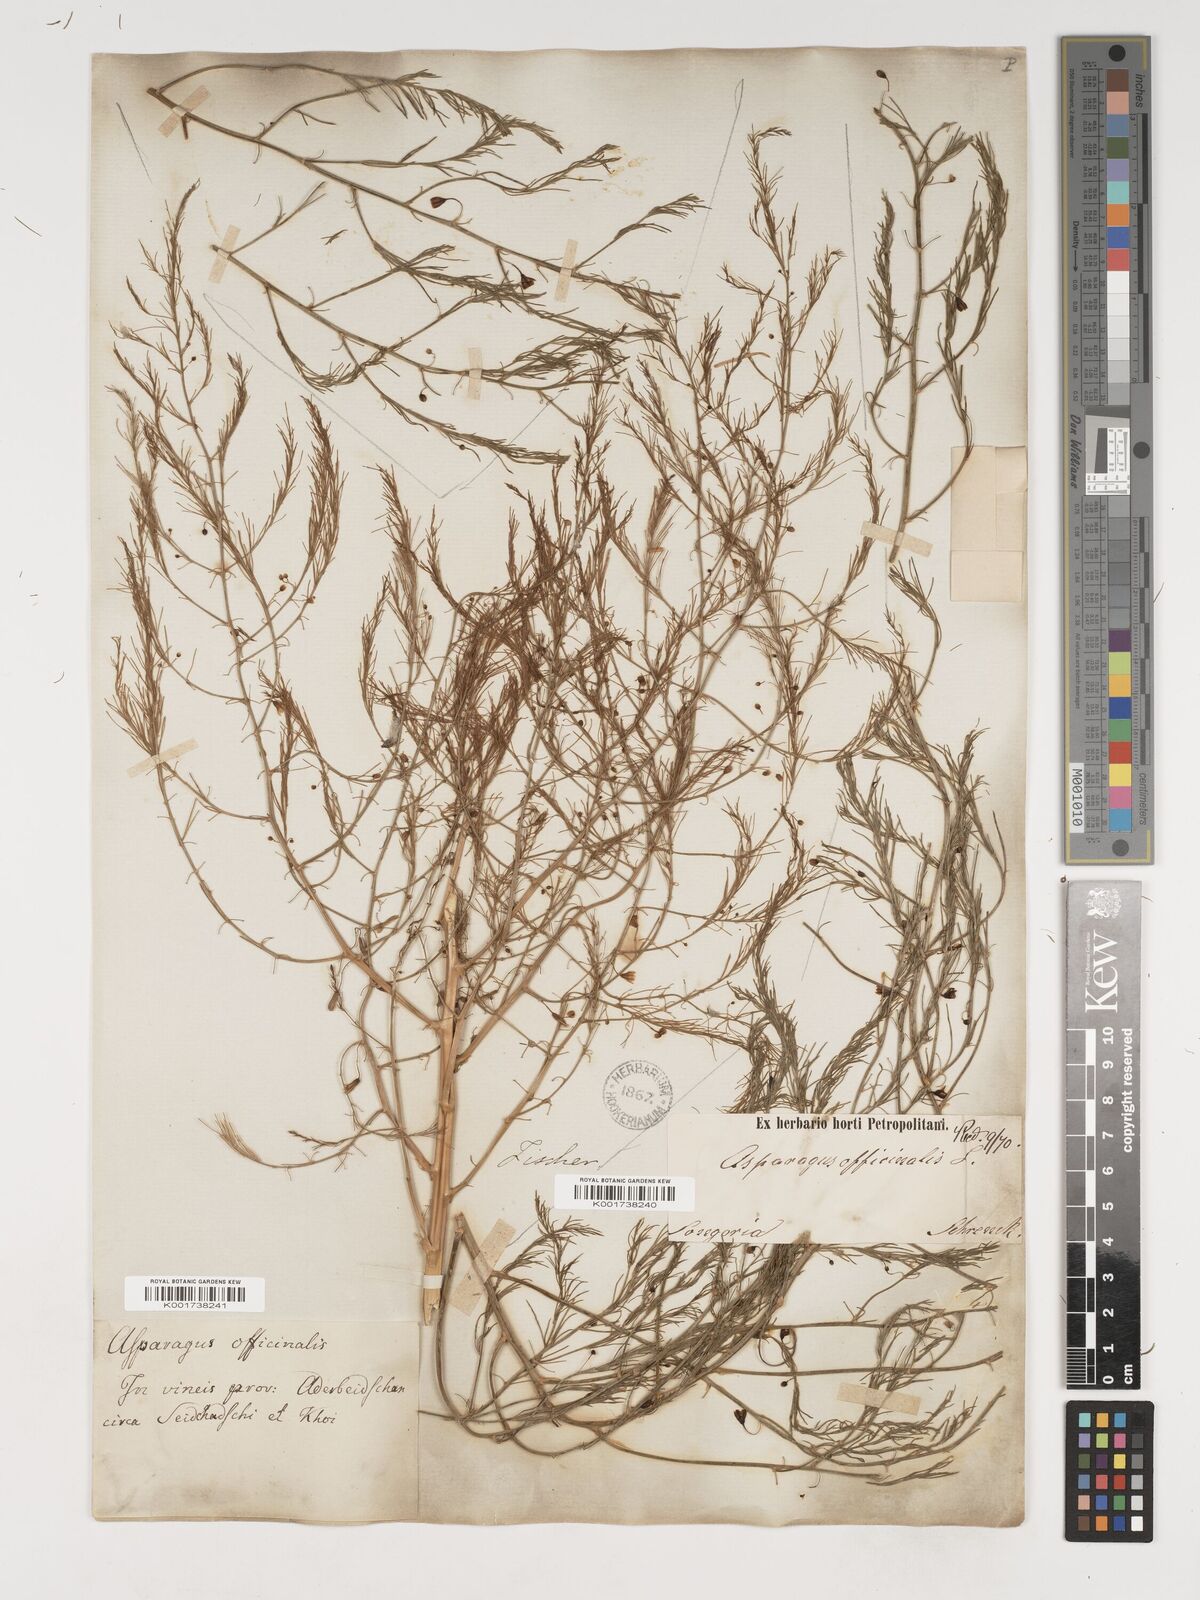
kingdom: Plantae
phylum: Tracheophyta
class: Liliopsida
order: Asparagales
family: Asparagaceae
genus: Asparagus
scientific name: Asparagus officinalis
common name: Garden asparagus
